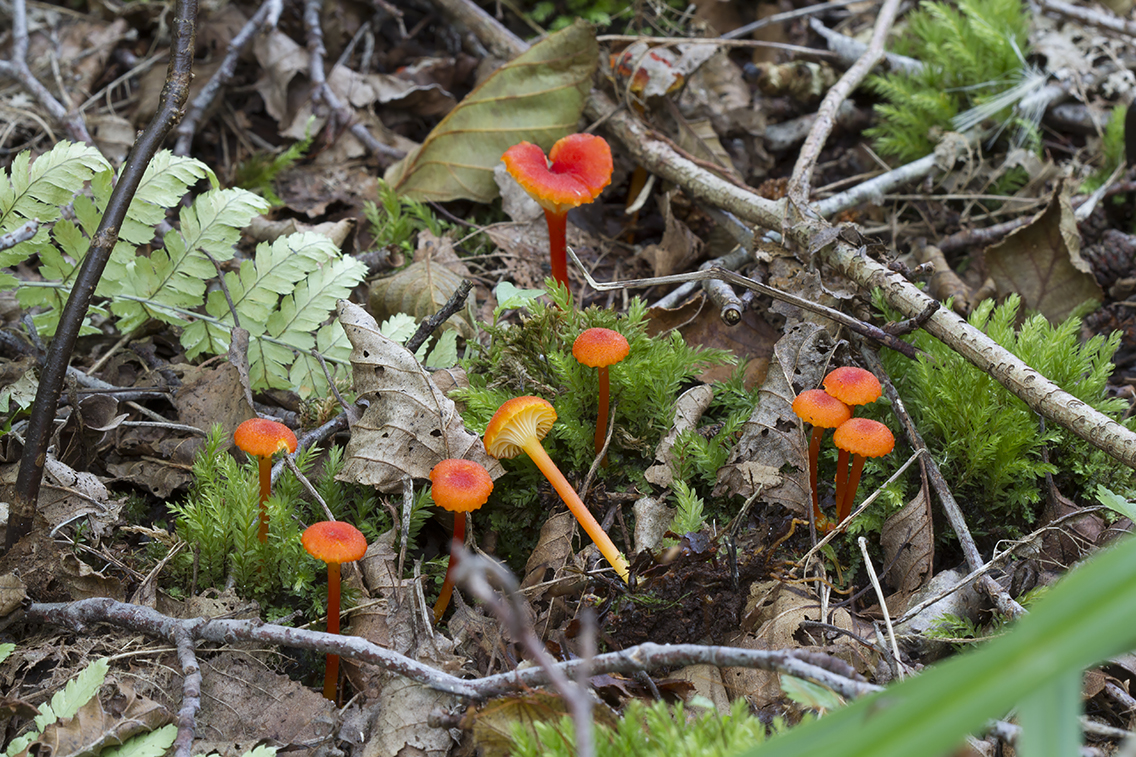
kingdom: Fungi
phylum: Basidiomycota
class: Agaricomycetes
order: Agaricales
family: Hygrophoraceae
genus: Hygrocybe
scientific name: Hygrocybe cantharellus
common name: kantarel-vokshat
